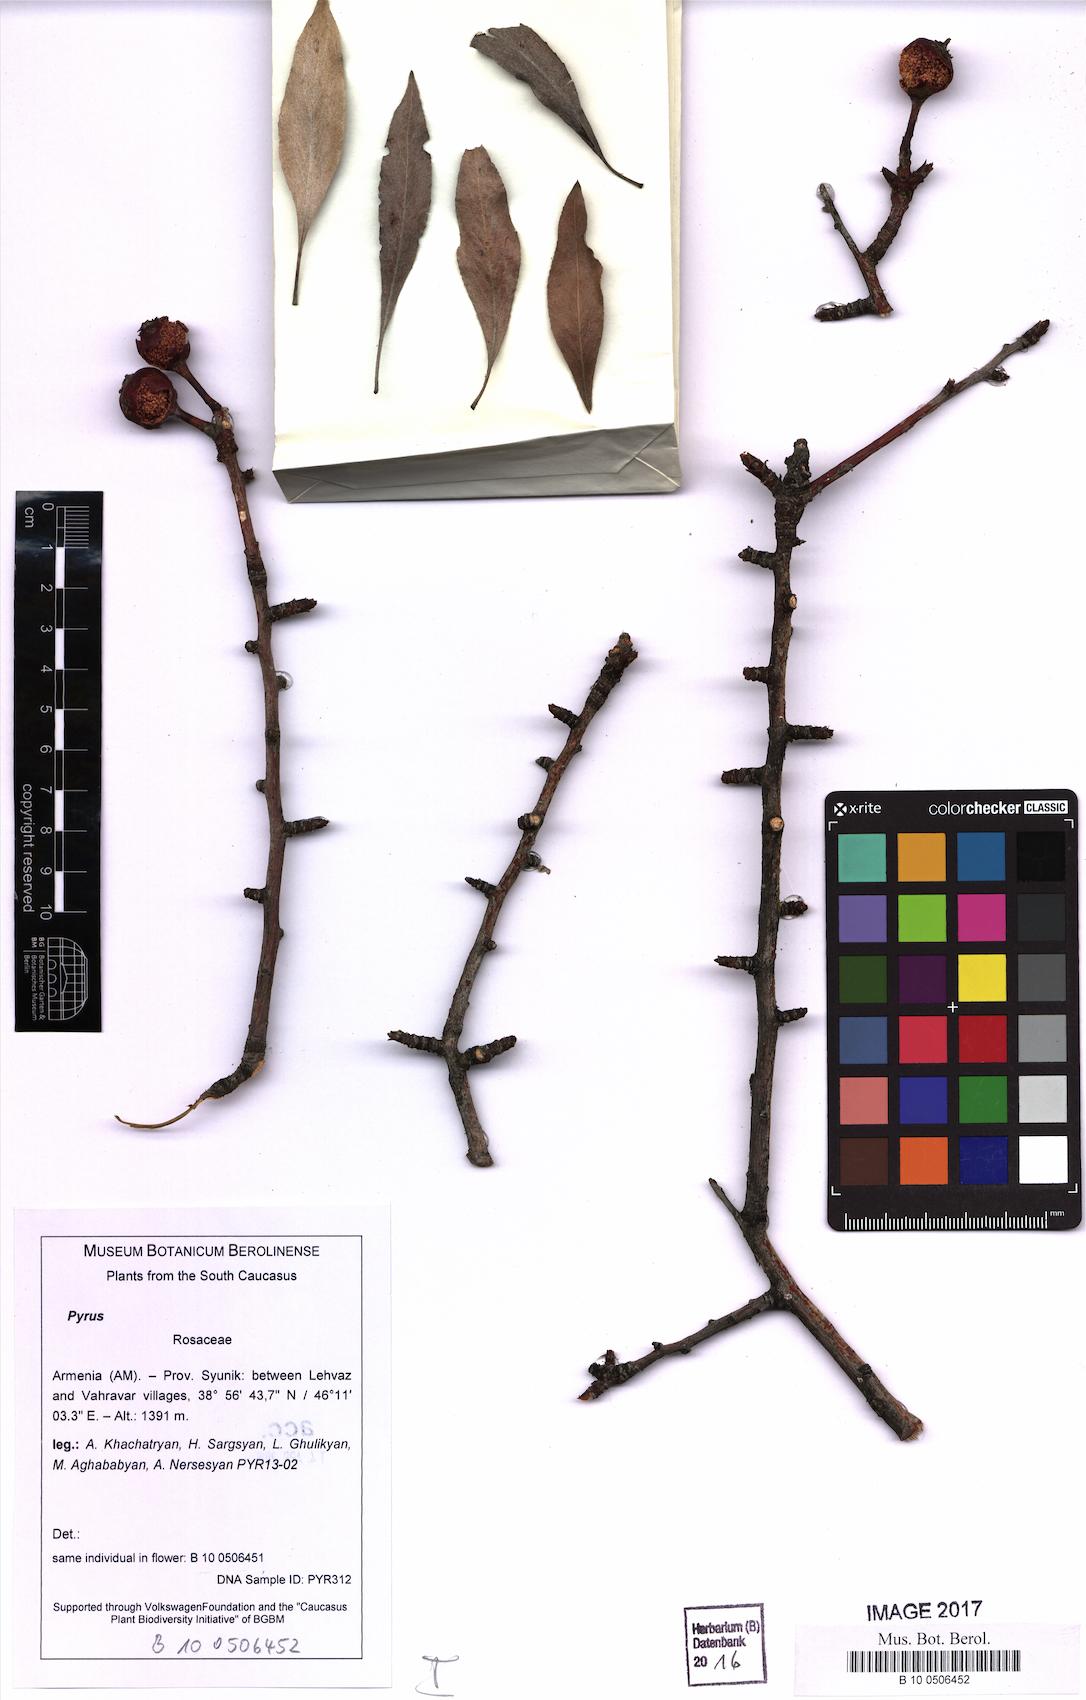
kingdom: Plantae
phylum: Tracheophyta
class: Magnoliopsida
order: Rosales
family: Rosaceae
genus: Pyrus
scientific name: Pyrus
